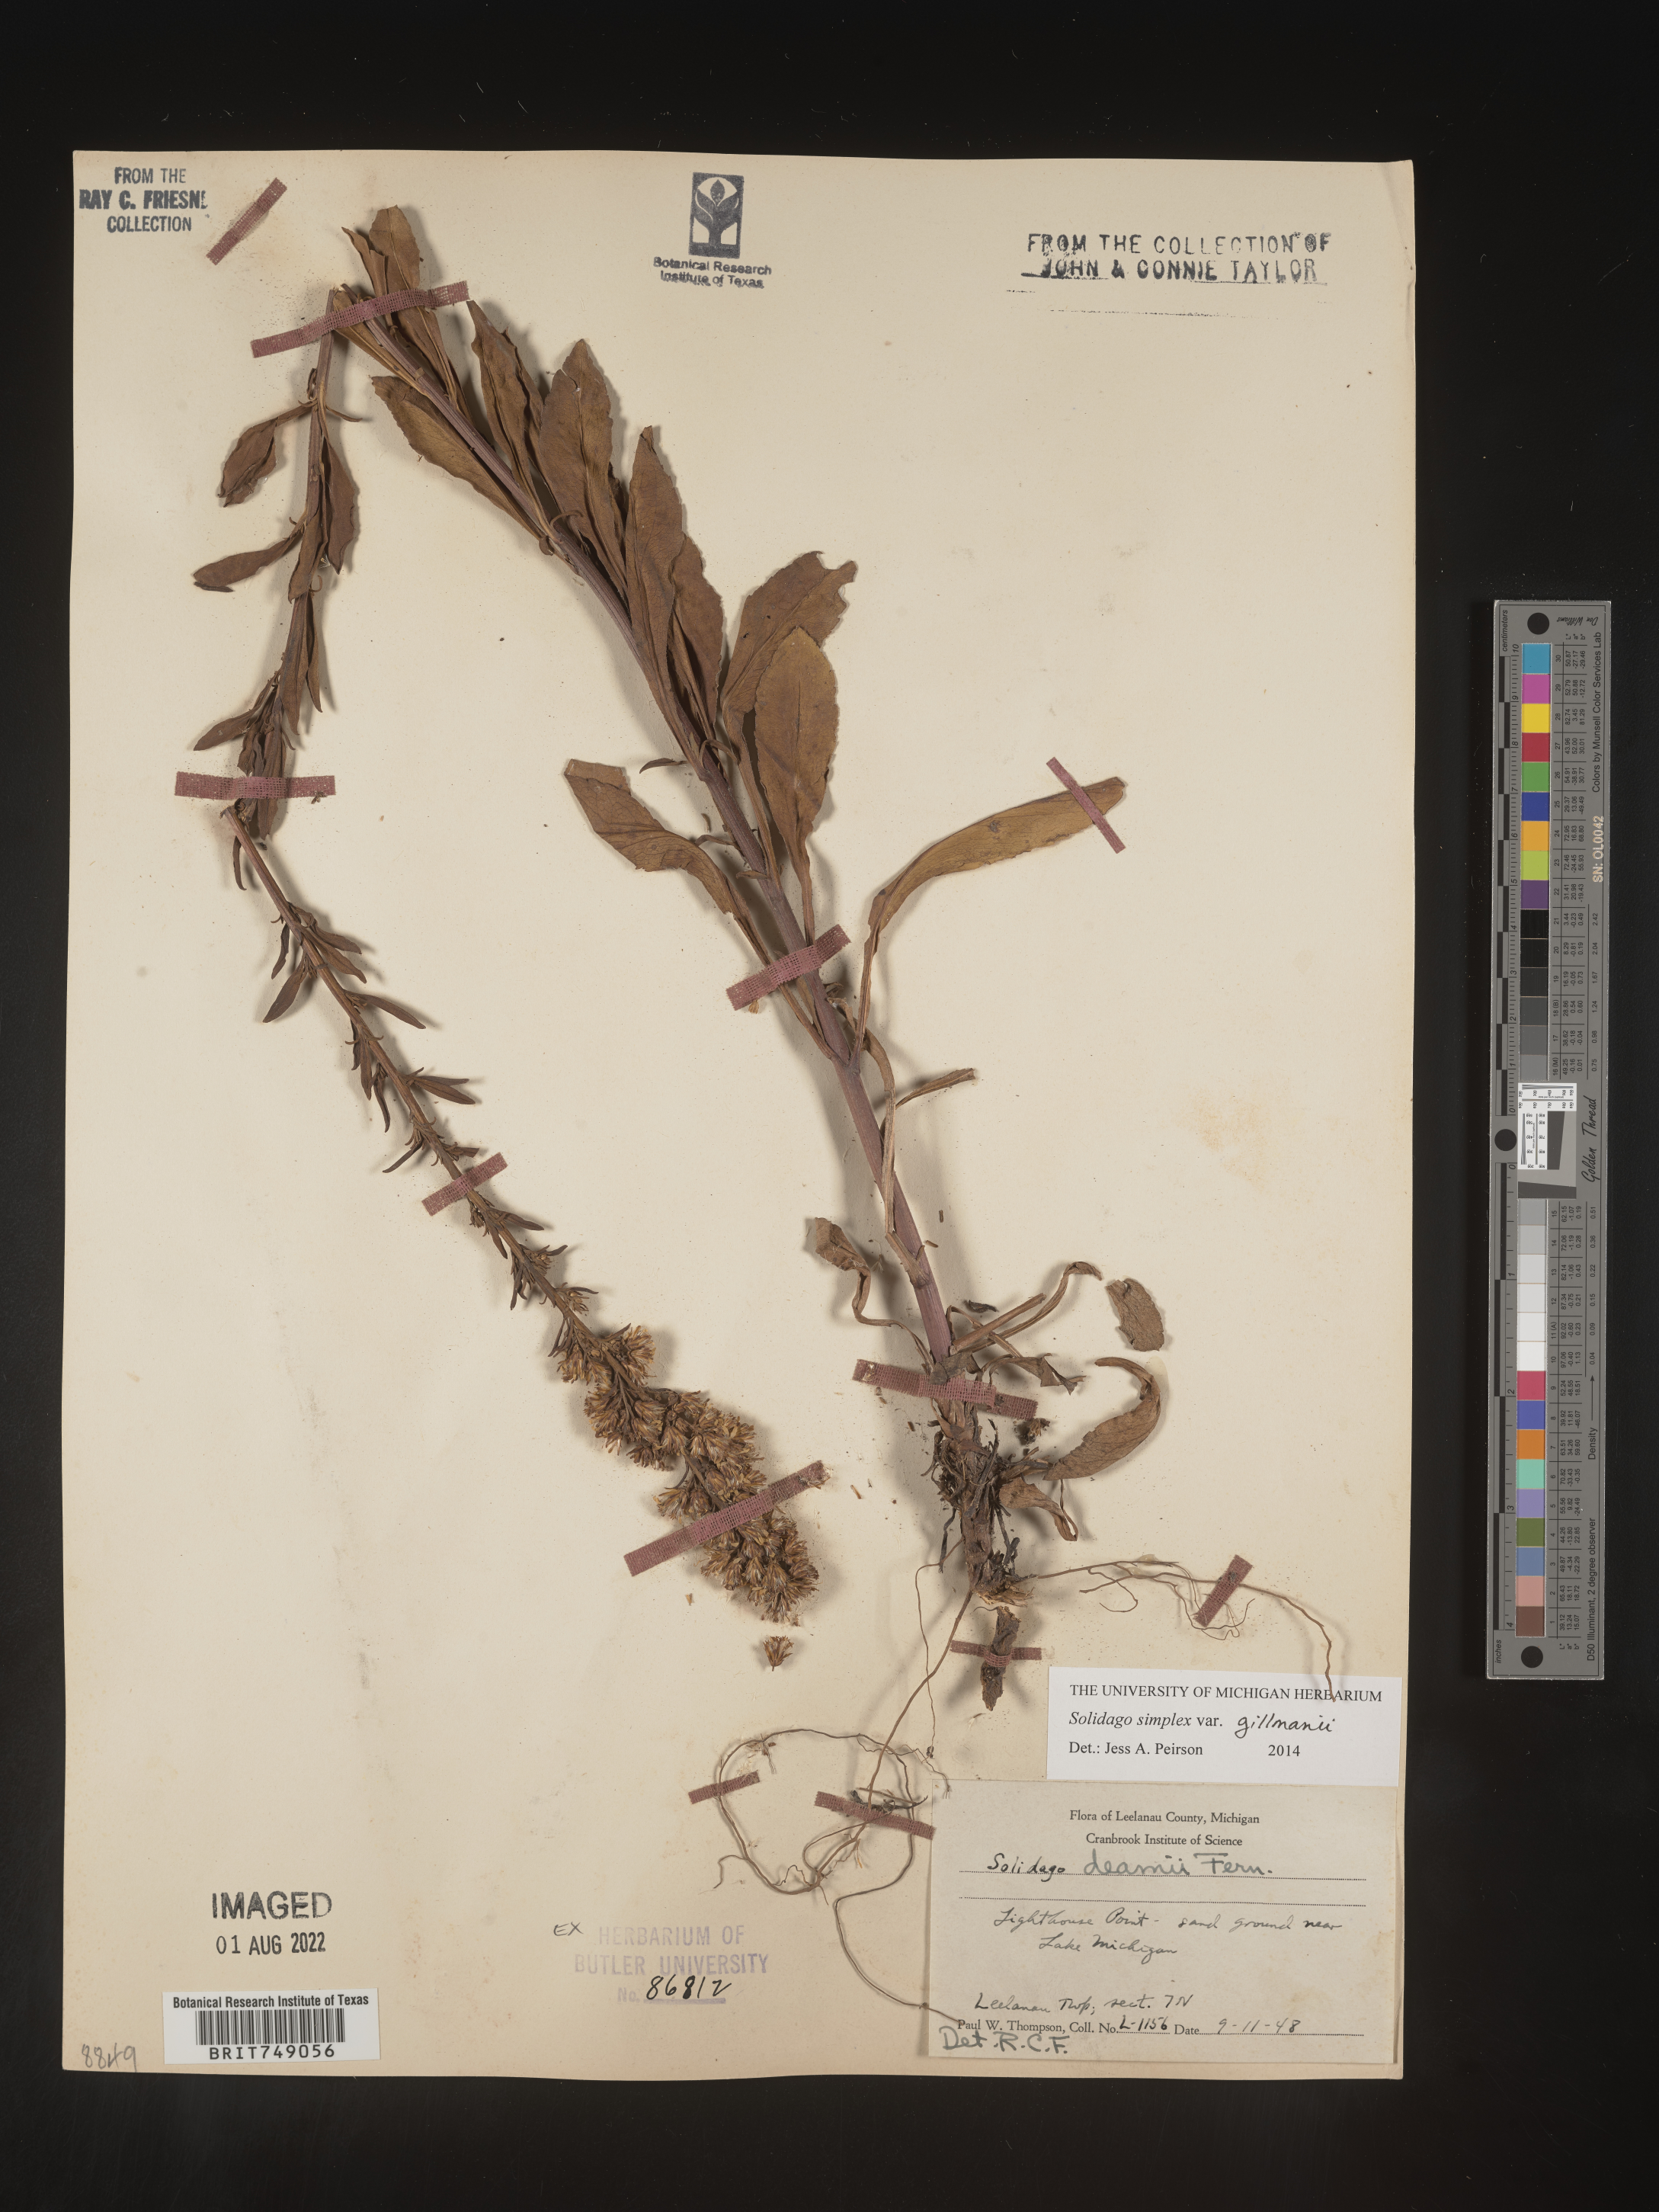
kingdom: Plantae
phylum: Tracheophyta
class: Magnoliopsida
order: Asterales
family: Asteraceae
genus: Solidago
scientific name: Solidago simplex
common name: Sticky goldenrod
